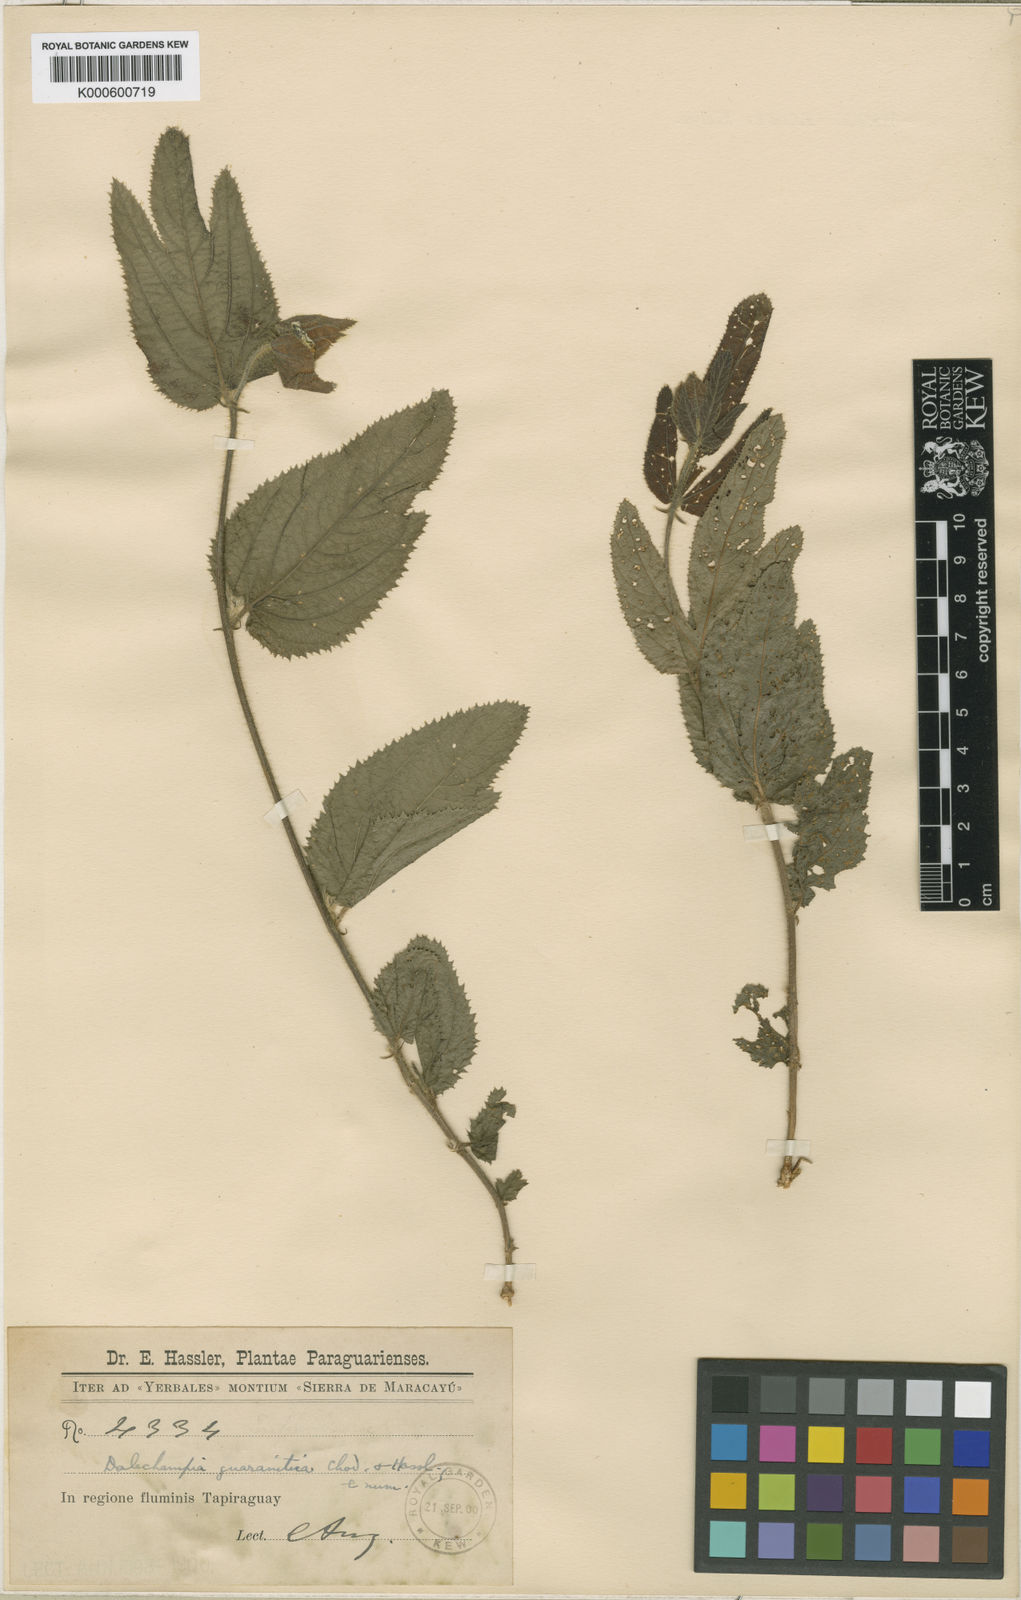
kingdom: Plantae
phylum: Tracheophyta
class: Magnoliopsida
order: Malpighiales
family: Euphorbiaceae
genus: Dalechampia
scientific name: Dalechampia guaranitica
